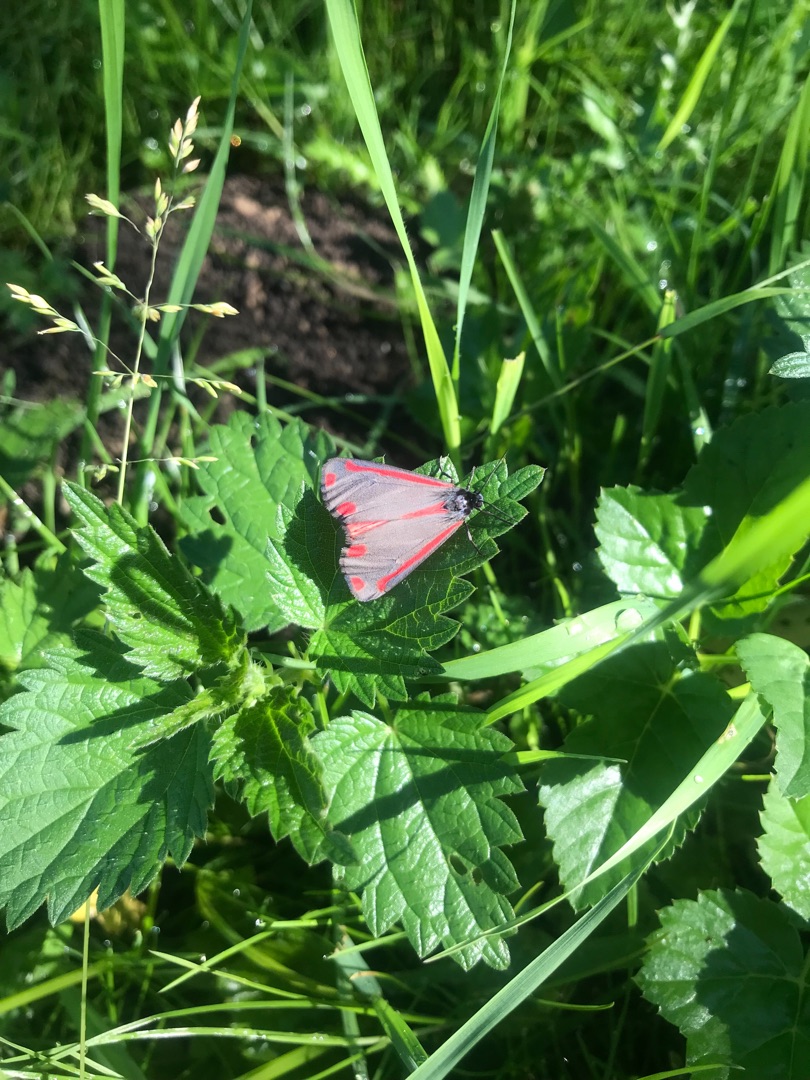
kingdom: Animalia
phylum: Arthropoda
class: Insecta
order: Lepidoptera
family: Erebidae
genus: Tyria
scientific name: Tyria jacobaeae
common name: Blodplet
